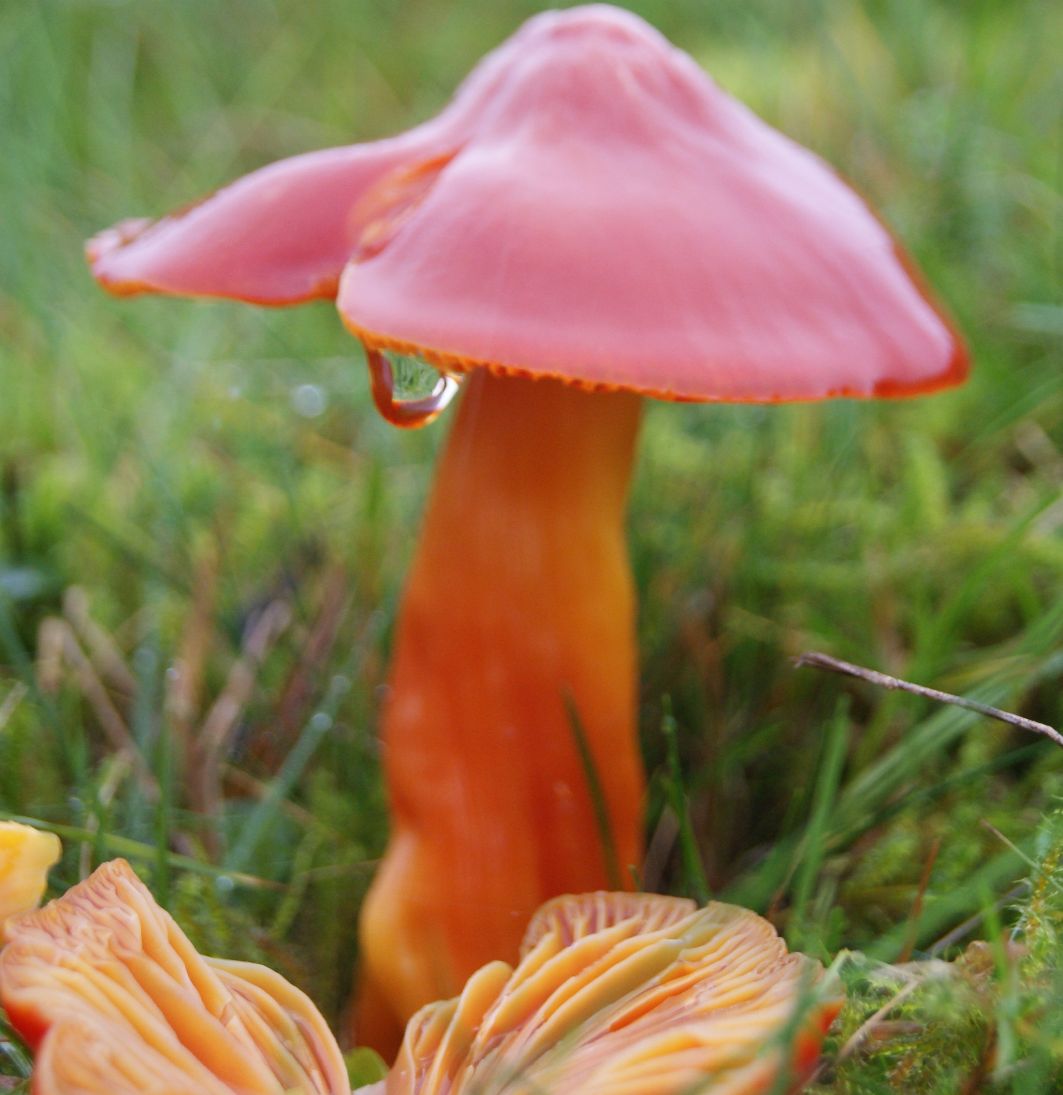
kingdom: Fungi
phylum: Basidiomycota
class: Agaricomycetes
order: Agaricales
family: Hygrophoraceae
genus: Hygrocybe
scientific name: Hygrocybe splendidissima
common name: knaldrød vokshat
